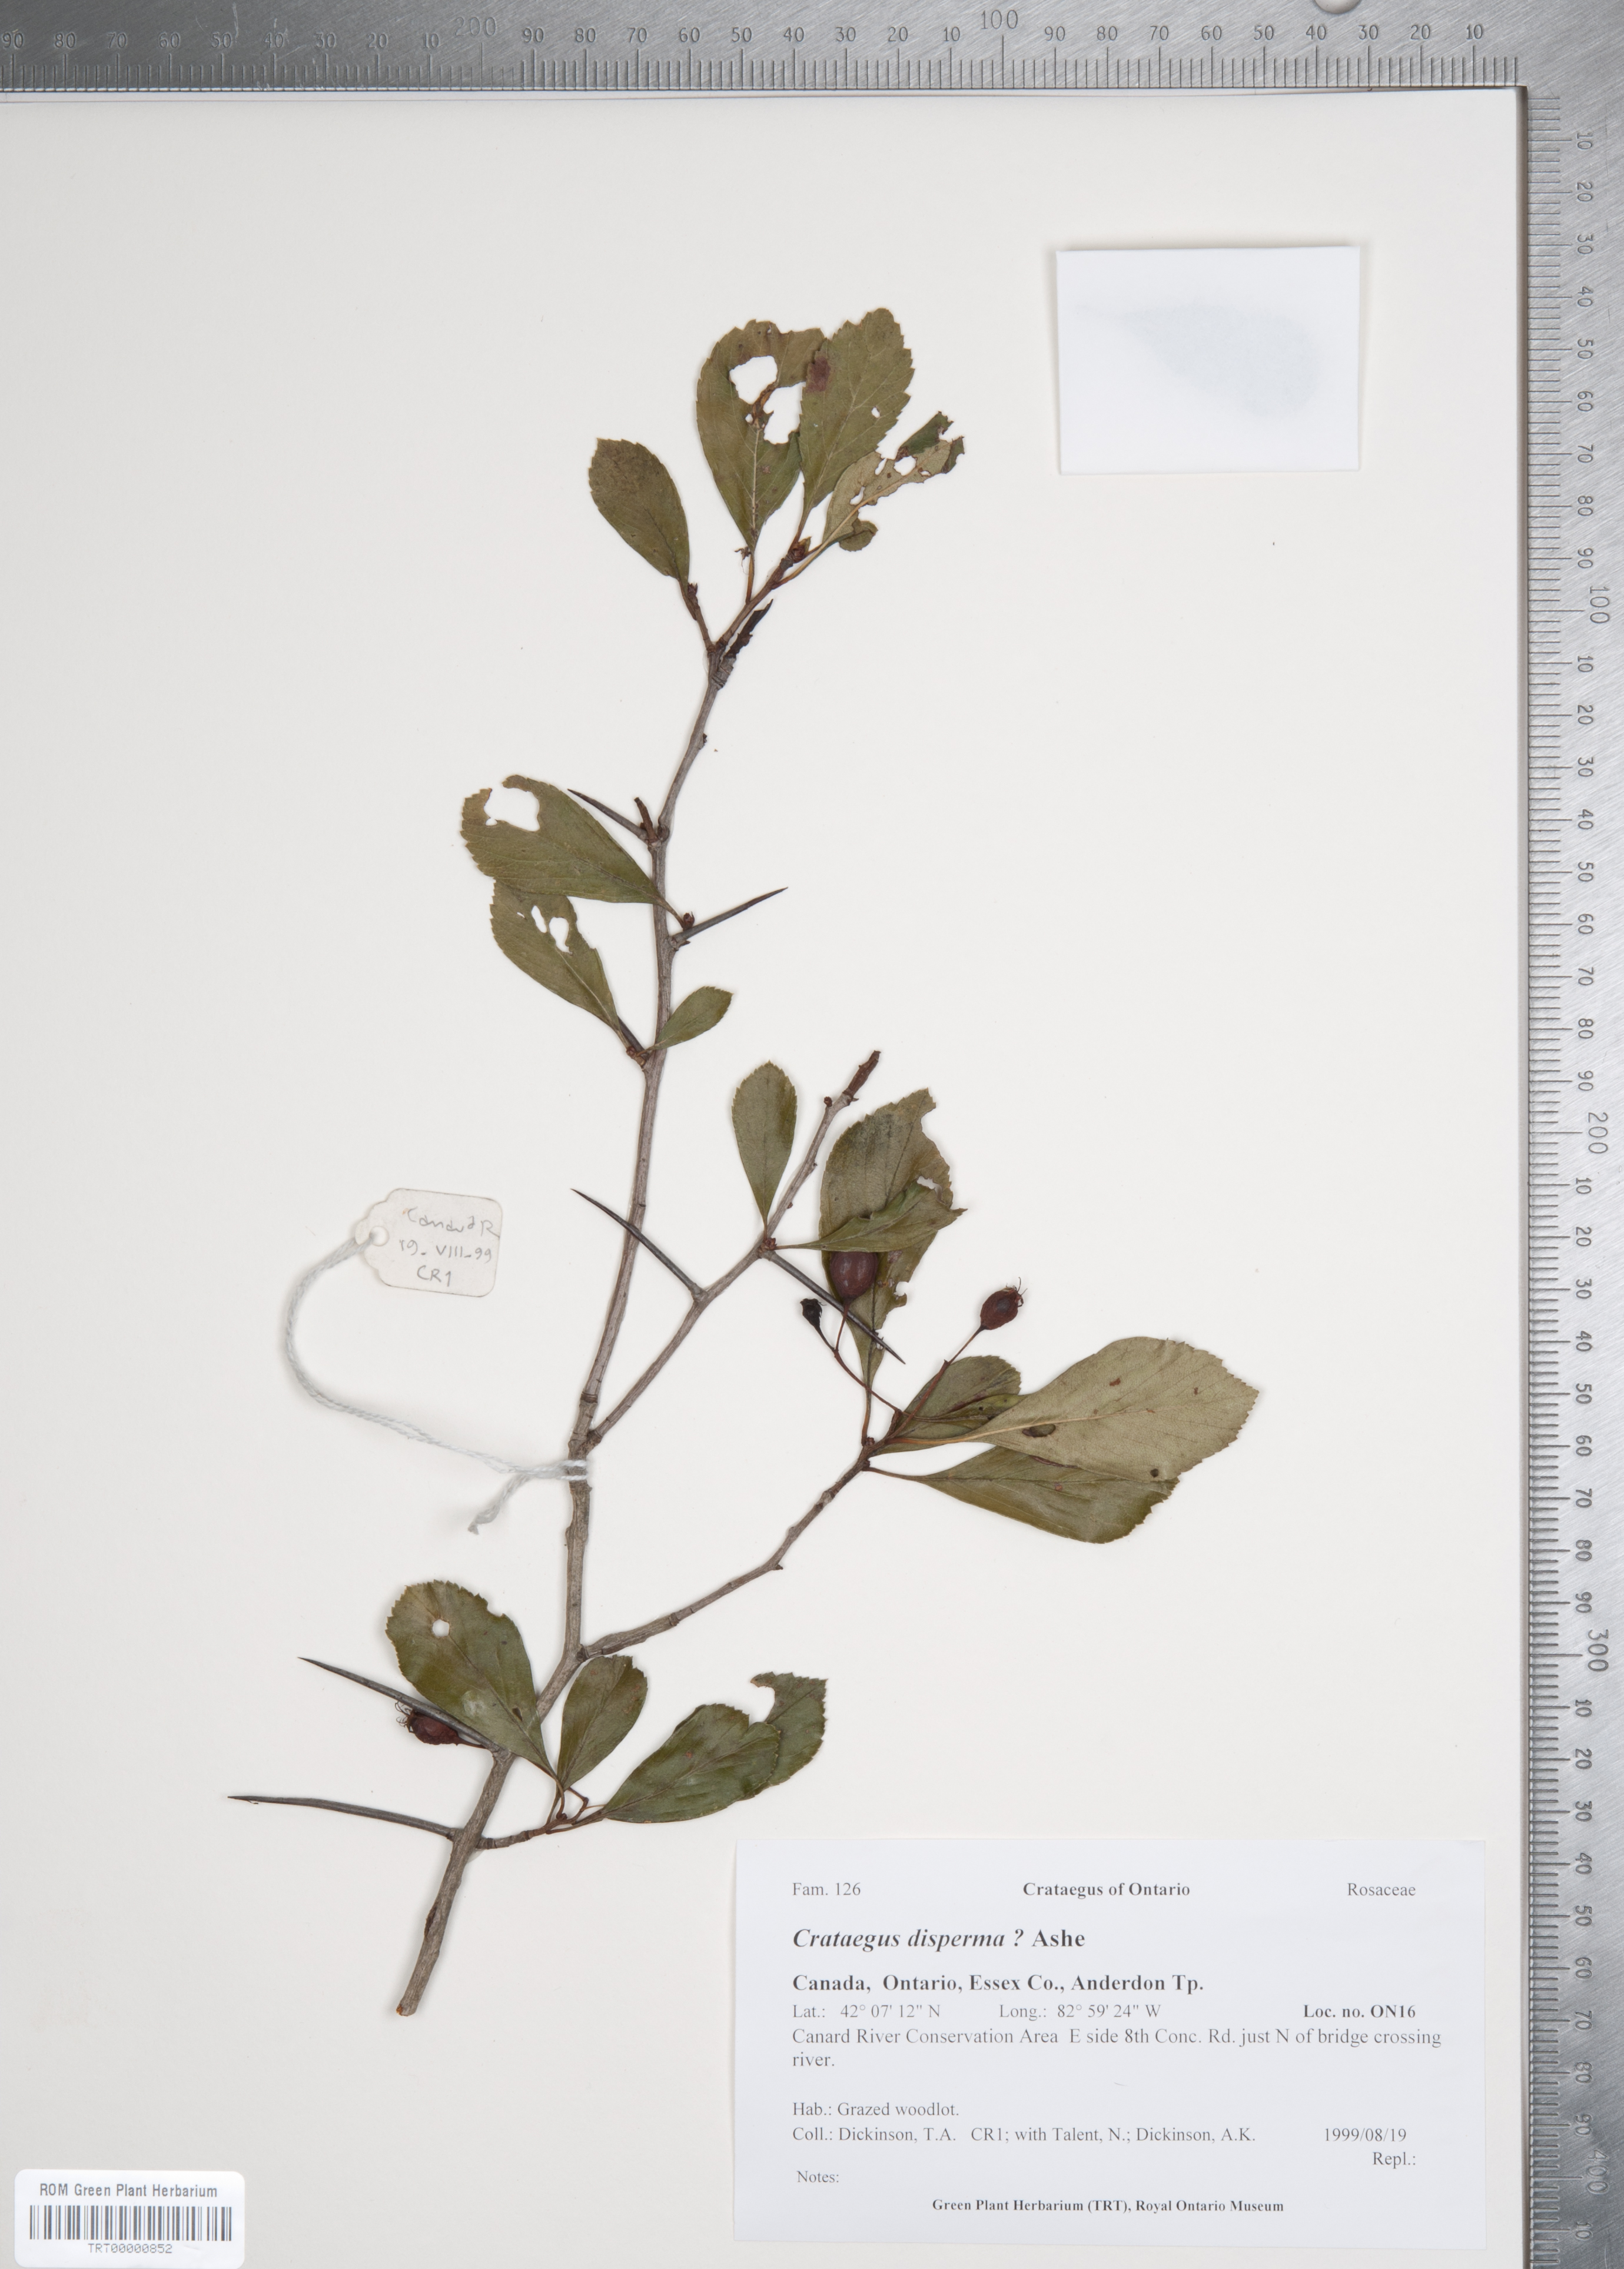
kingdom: Plantae
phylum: Tracheophyta
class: Magnoliopsida
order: Rosales
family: Rosaceae
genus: Crataegus
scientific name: Crataegus disperma
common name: Spreading hawthorn
